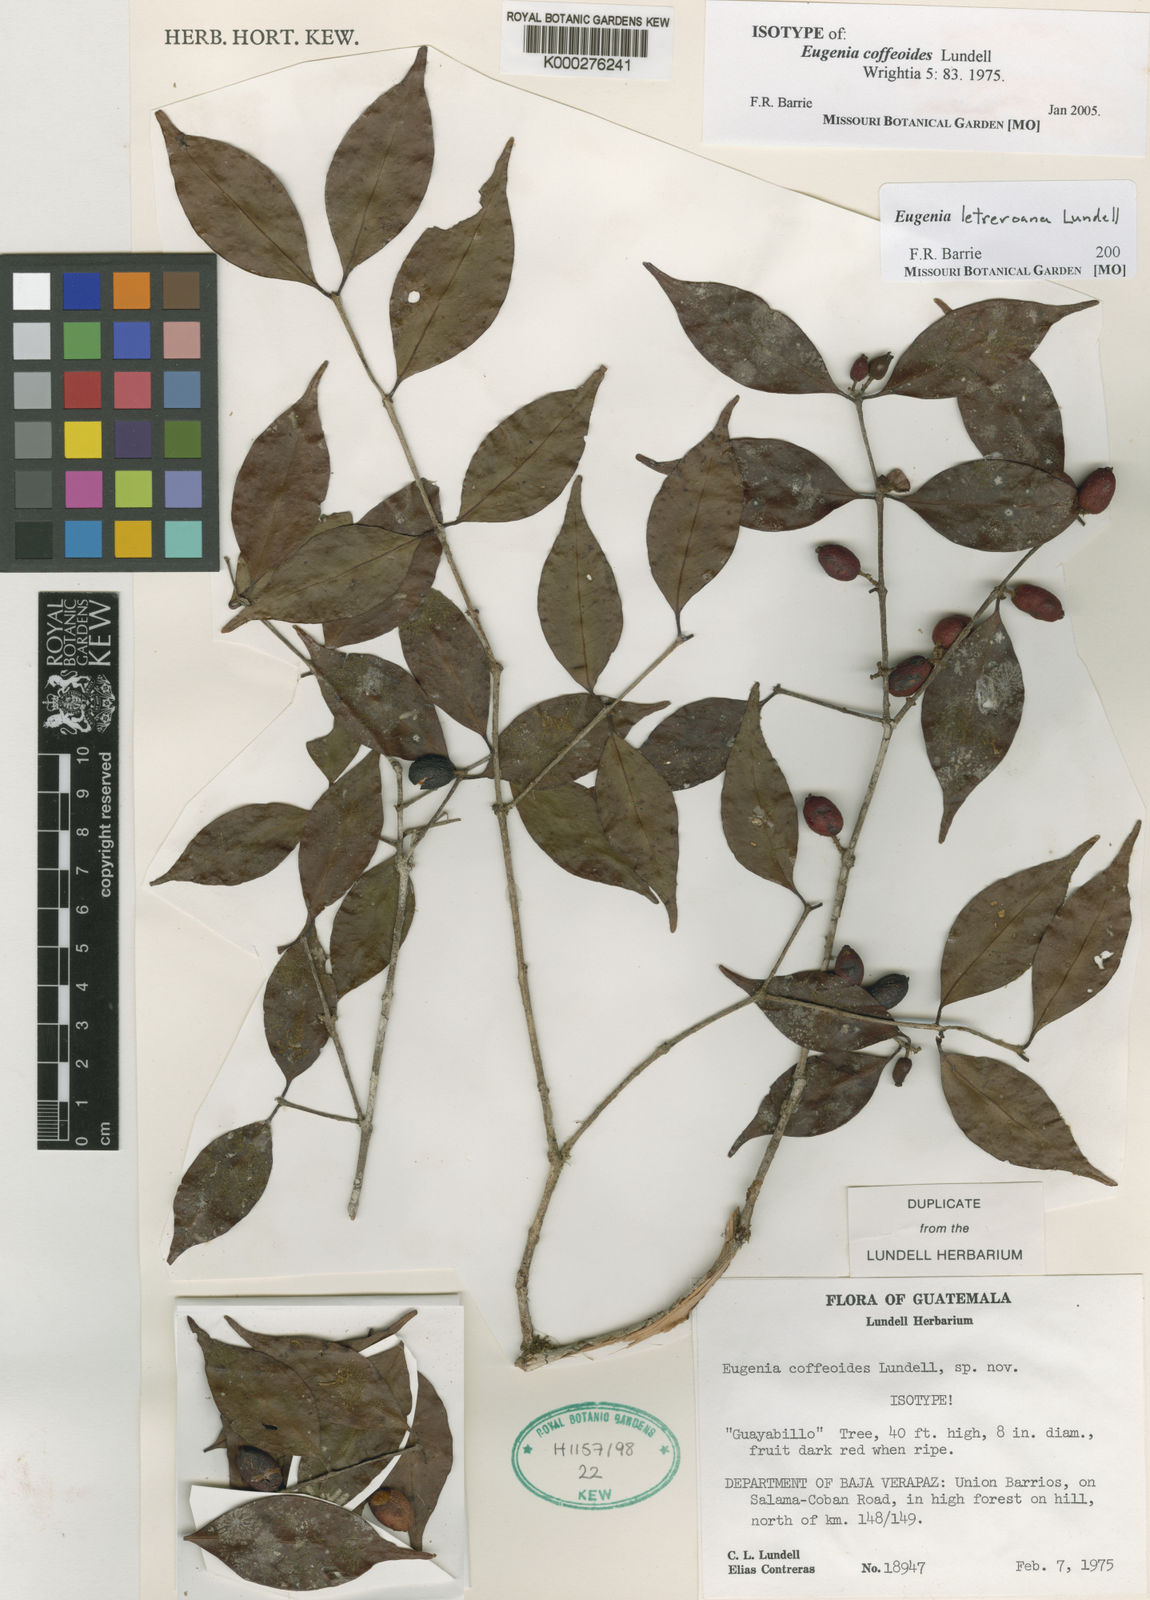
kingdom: Plantae
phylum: Tracheophyta
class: Magnoliopsida
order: Myrtales
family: Myrtaceae
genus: Eugenia
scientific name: Eugenia
